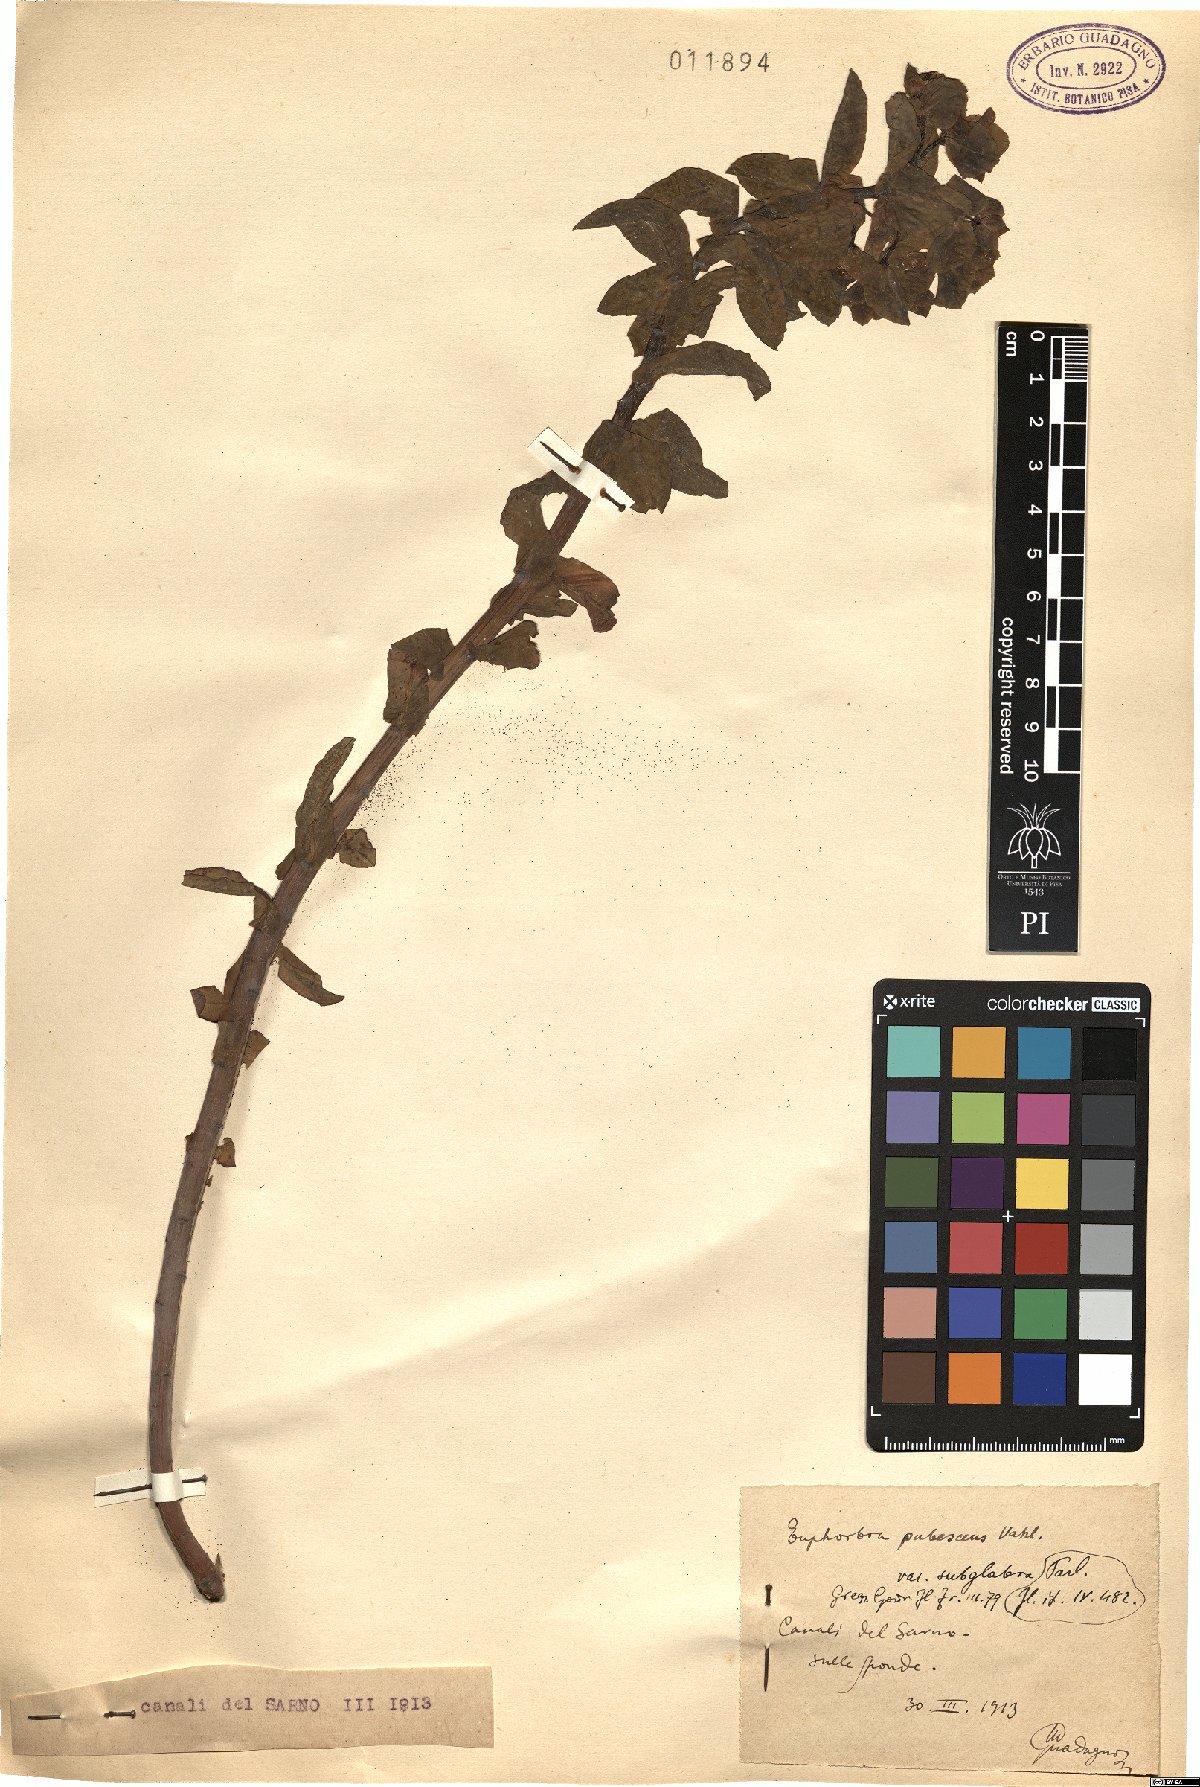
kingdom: Plantae
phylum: Tracheophyta
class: Magnoliopsida
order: Malpighiales
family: Euphorbiaceae
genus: Euphorbia
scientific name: Euphorbia hirsuta
